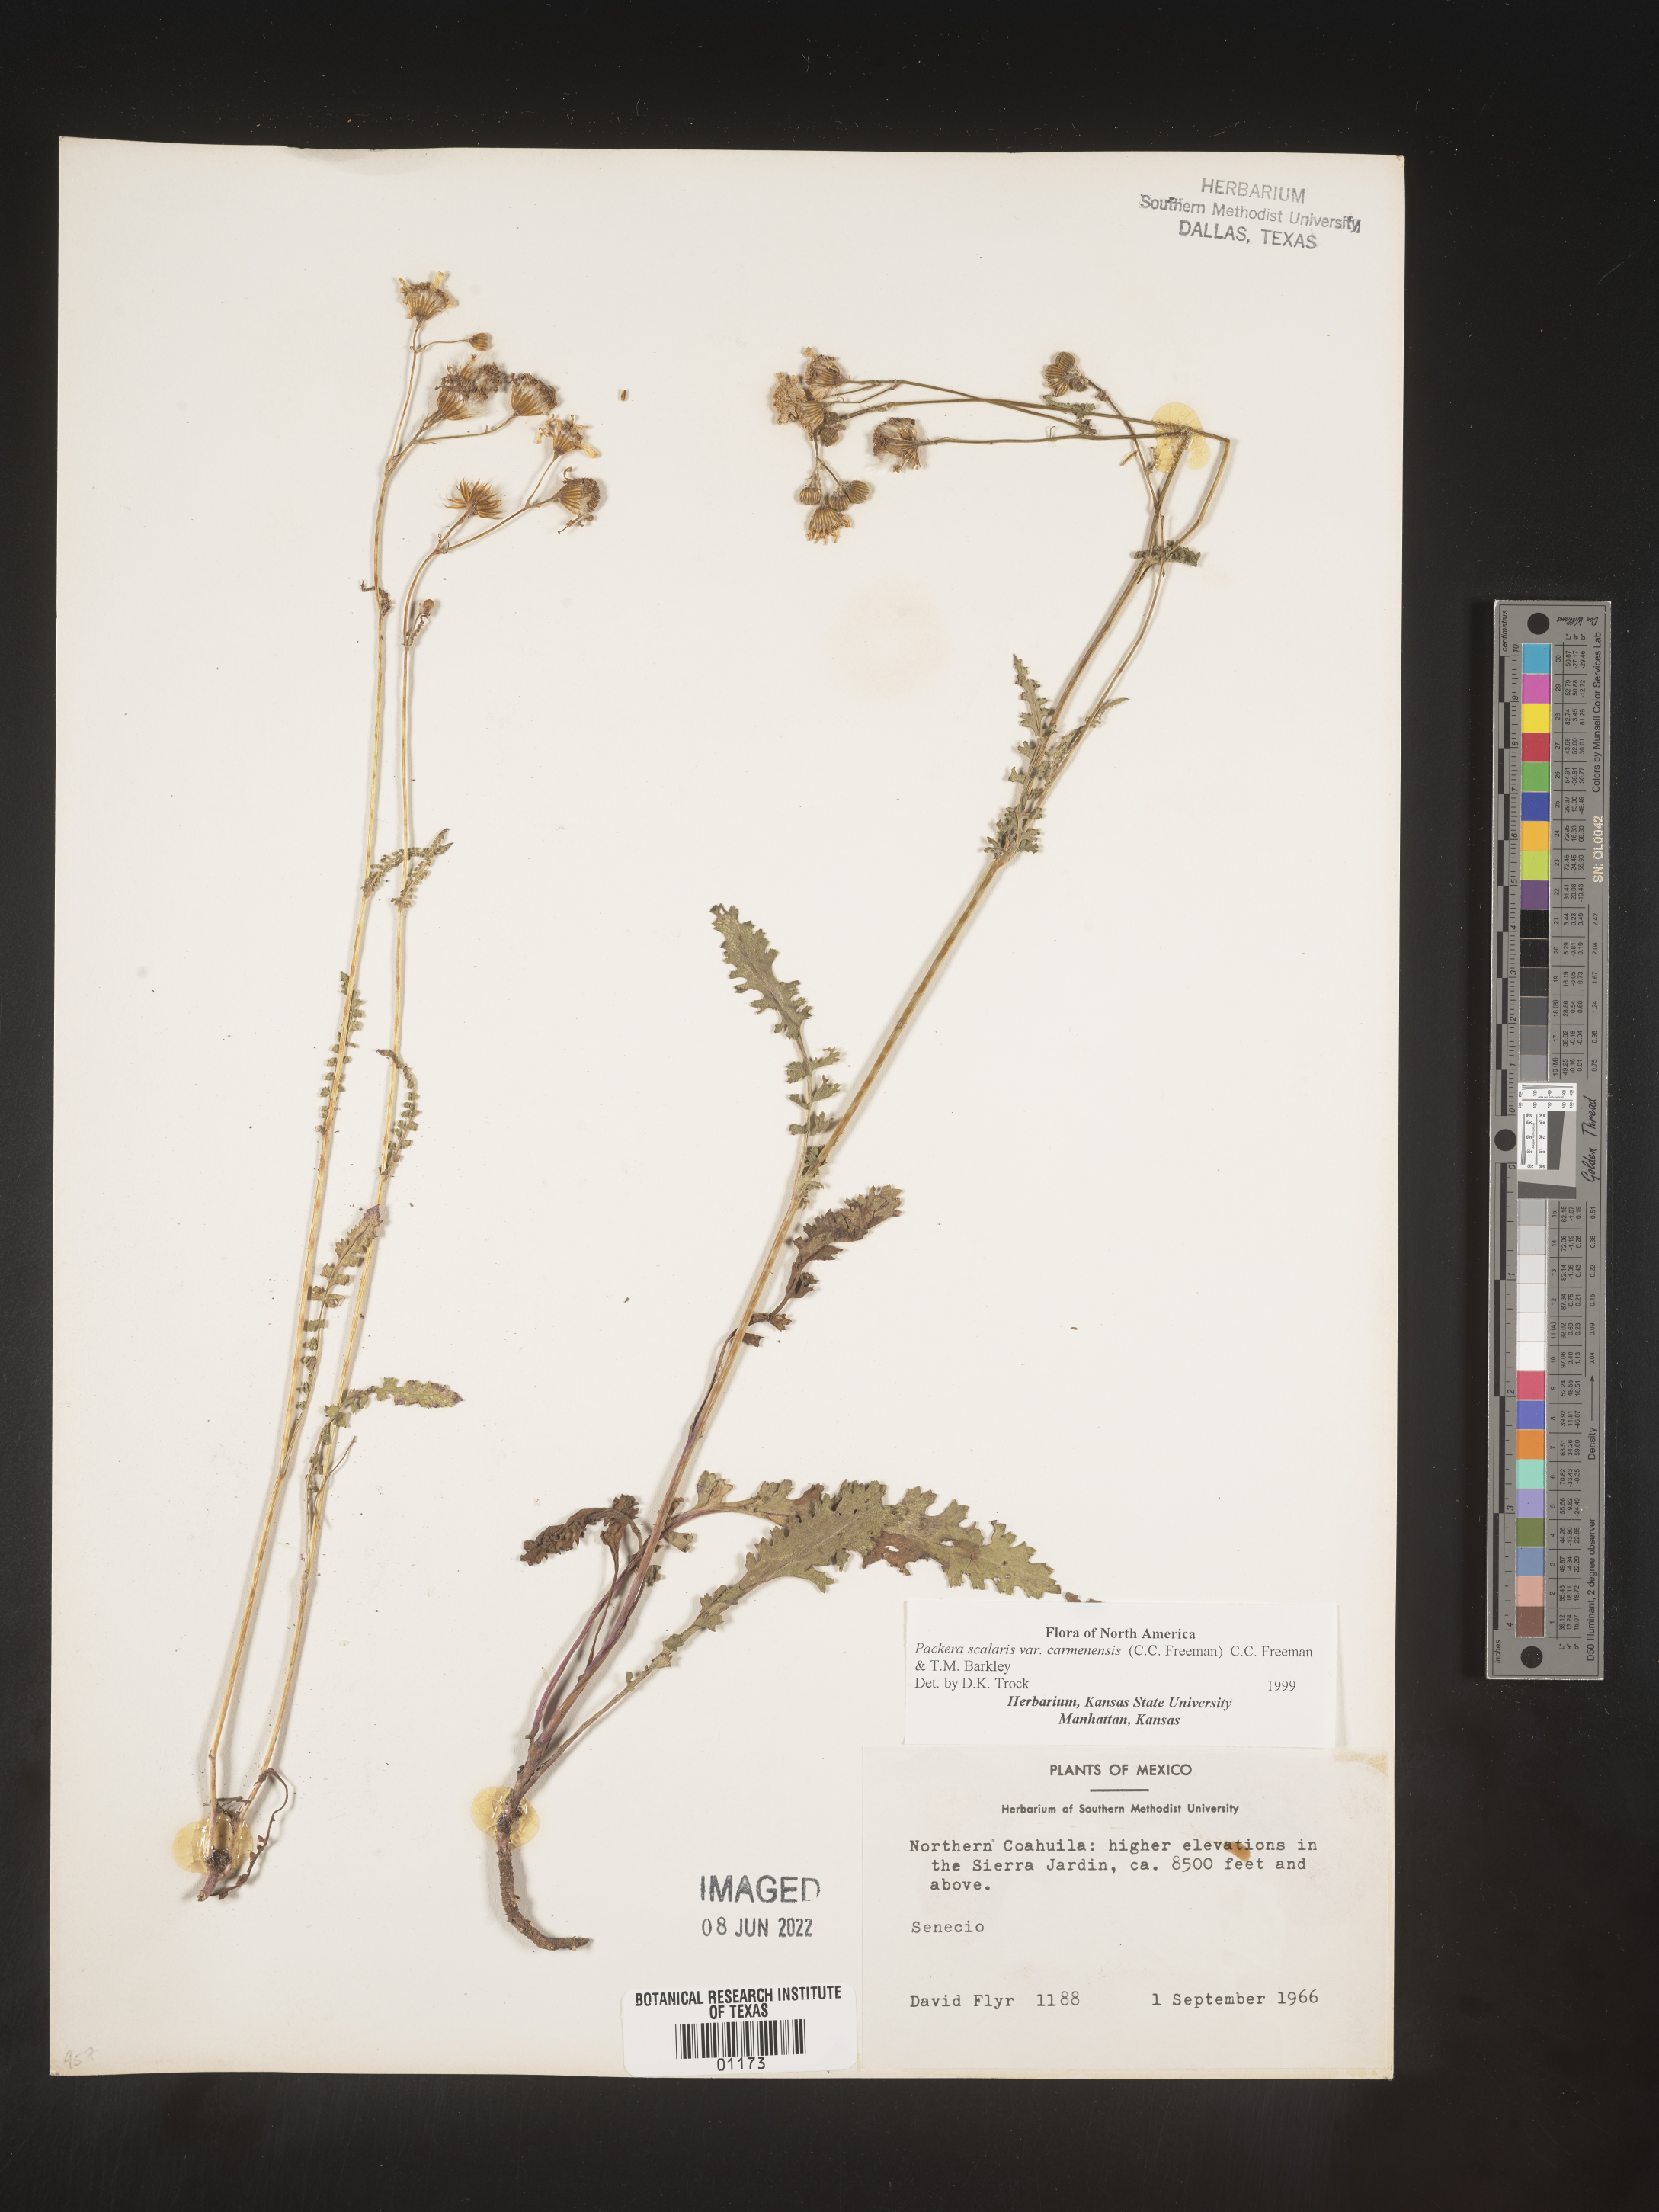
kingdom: Plantae
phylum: Tracheophyta
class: Magnoliopsida
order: Asterales
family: Asteraceae
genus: Packera
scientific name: Packera
